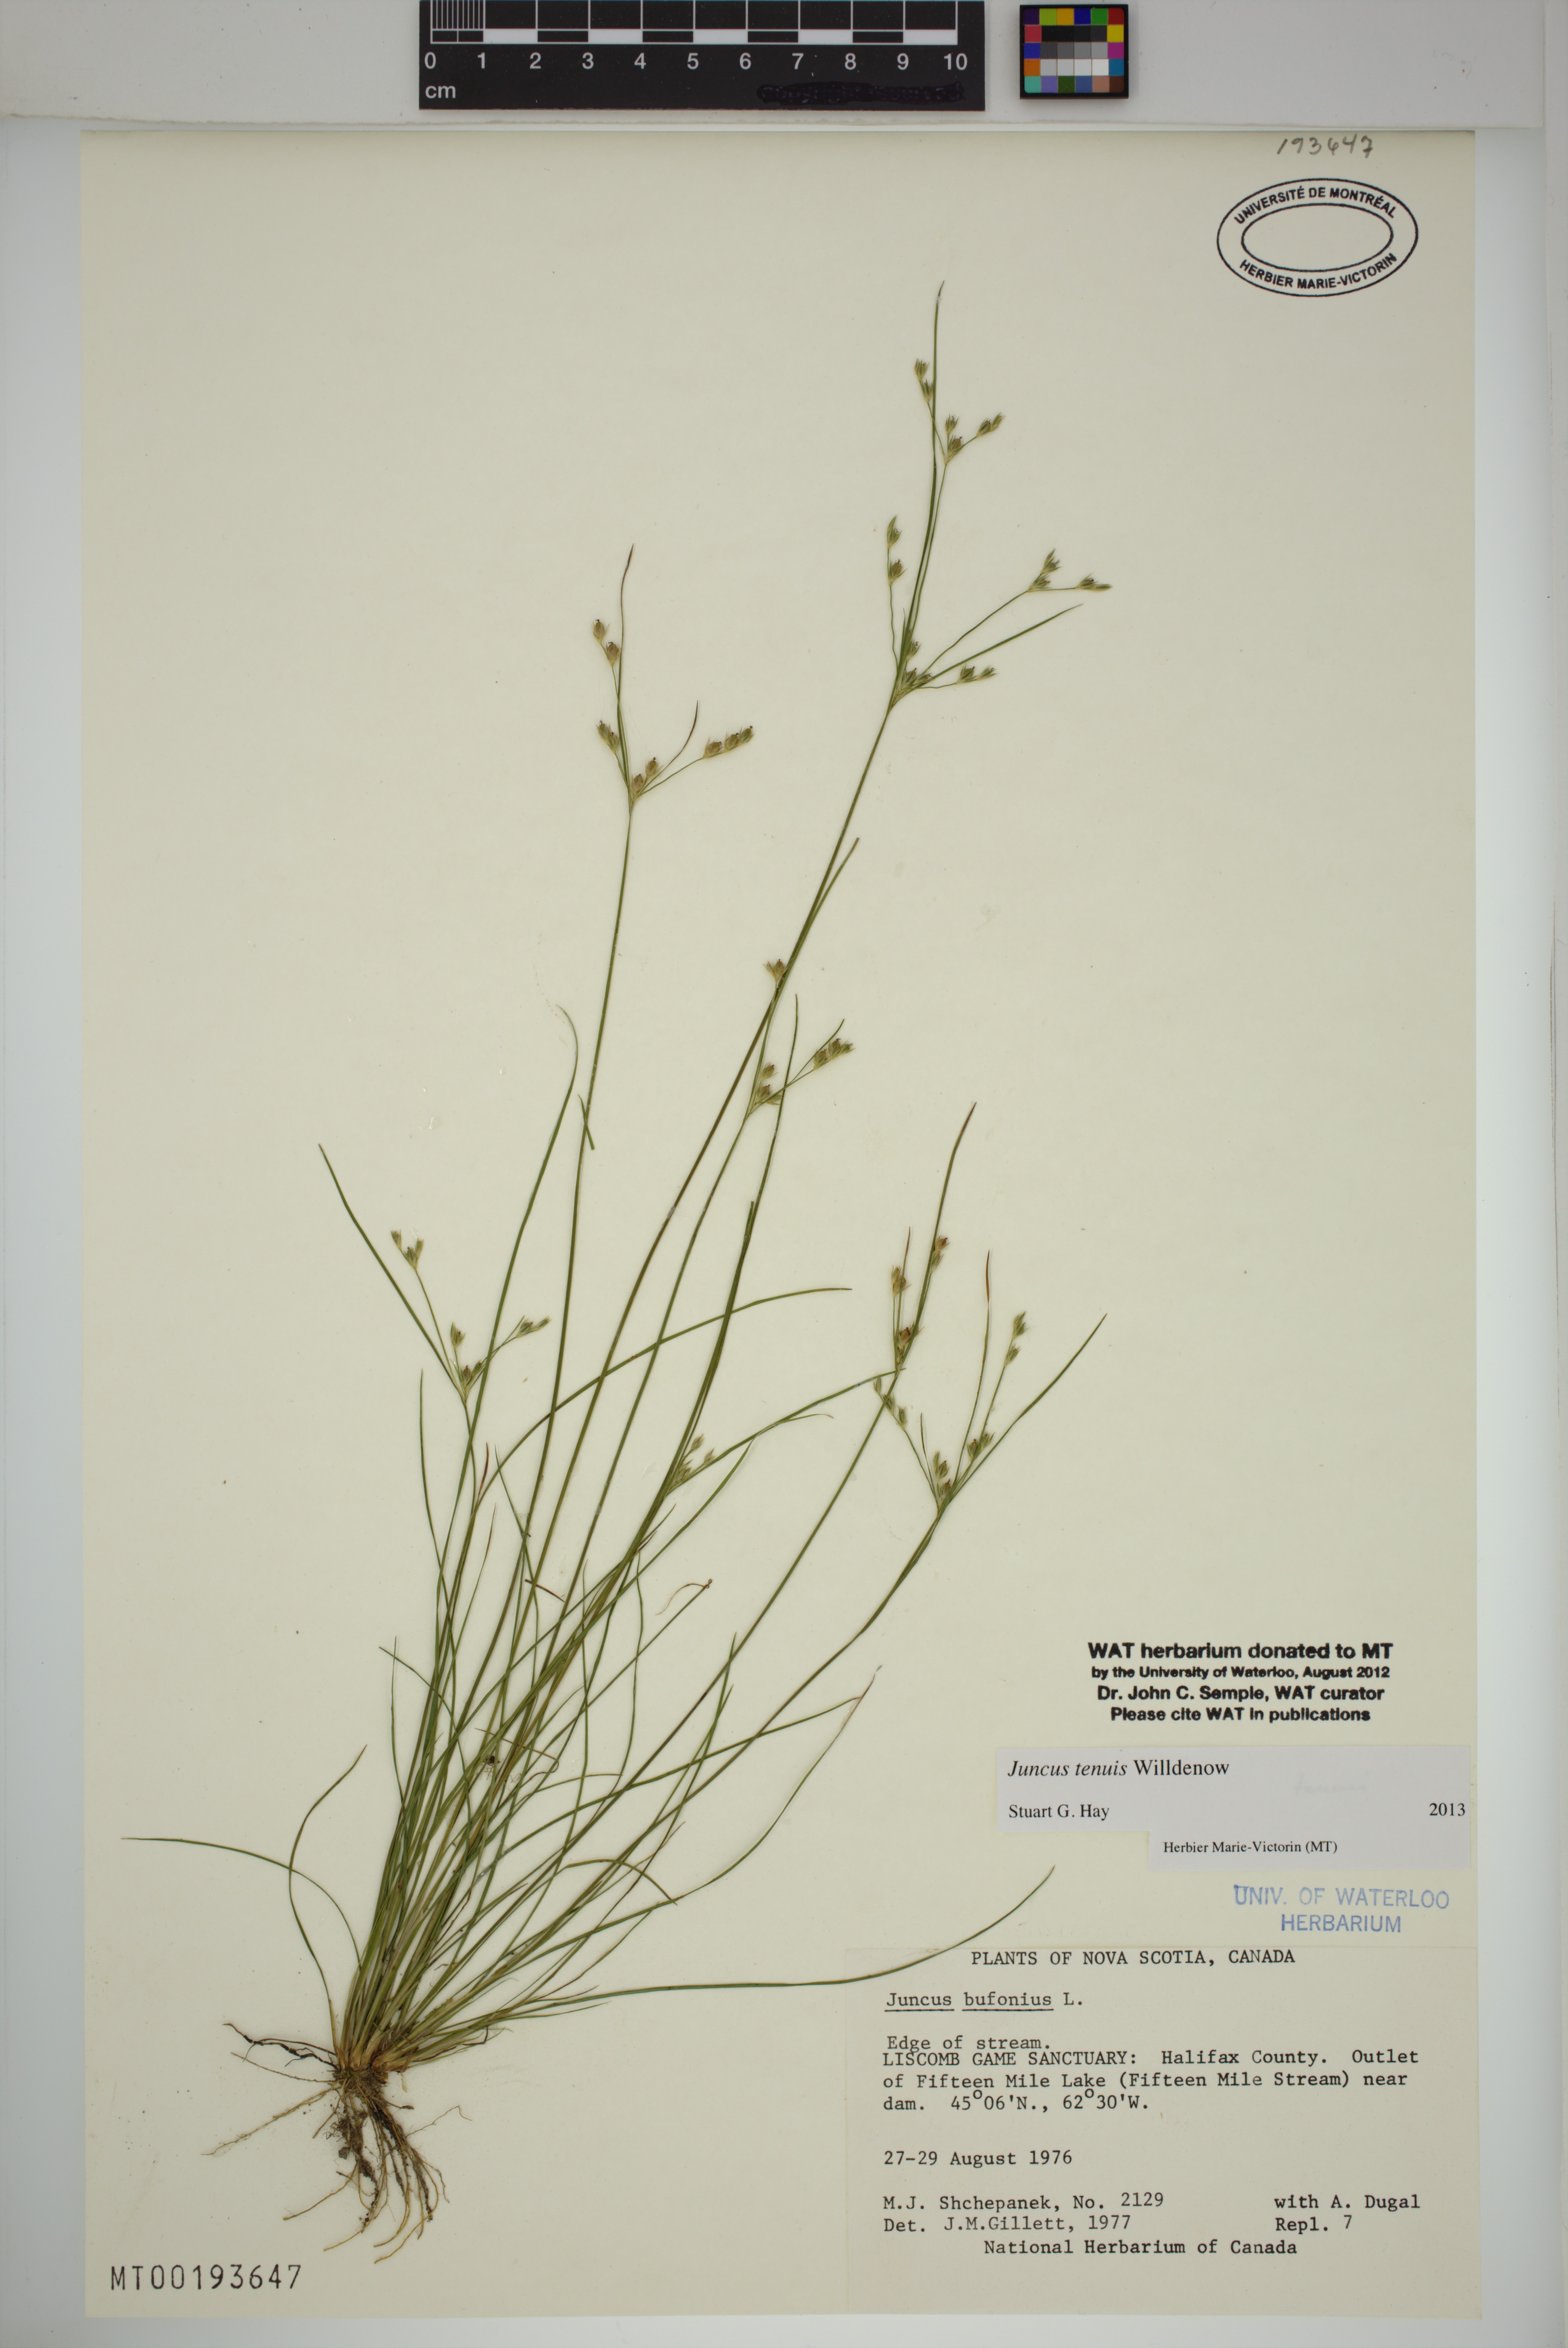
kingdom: Plantae
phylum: Tracheophyta
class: Liliopsida
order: Poales
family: Juncaceae
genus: Juncus
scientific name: Juncus tenuis
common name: Slender rush
